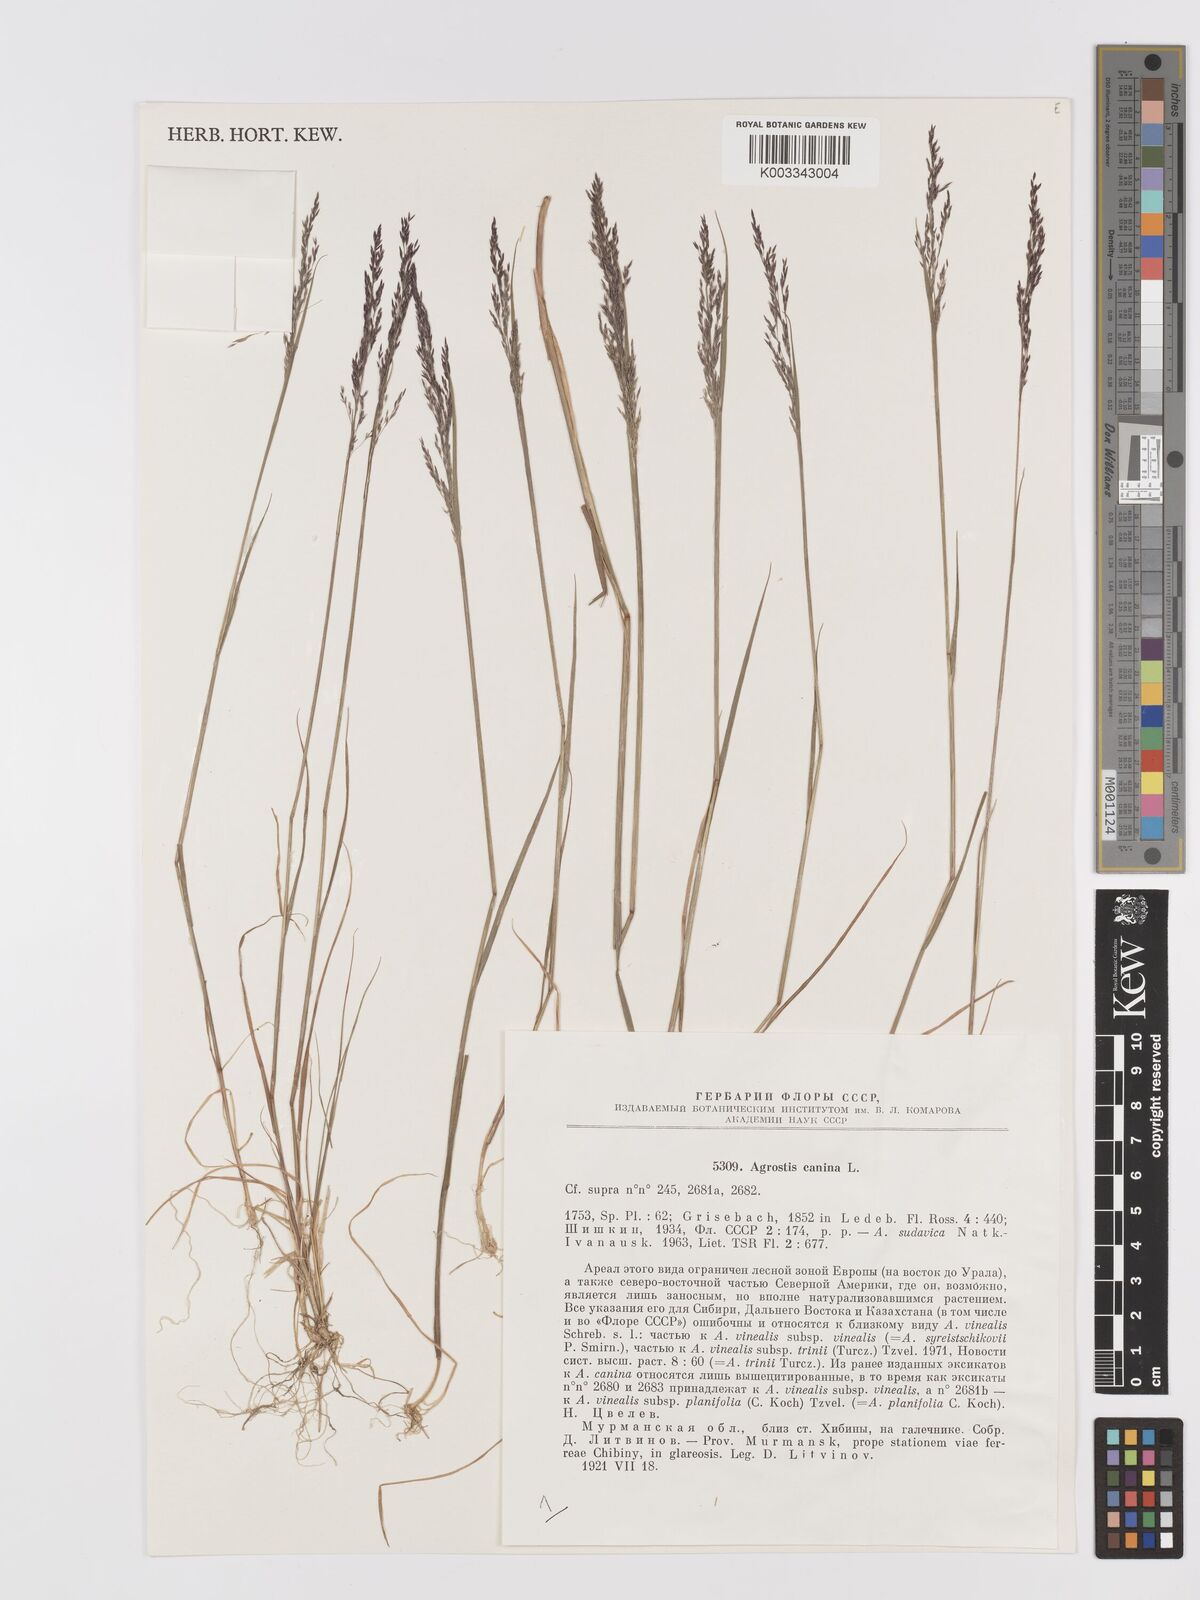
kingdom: Plantae
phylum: Tracheophyta
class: Liliopsida
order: Poales
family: Poaceae
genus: Agrostis
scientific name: Agrostis canina
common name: Velvet bent
